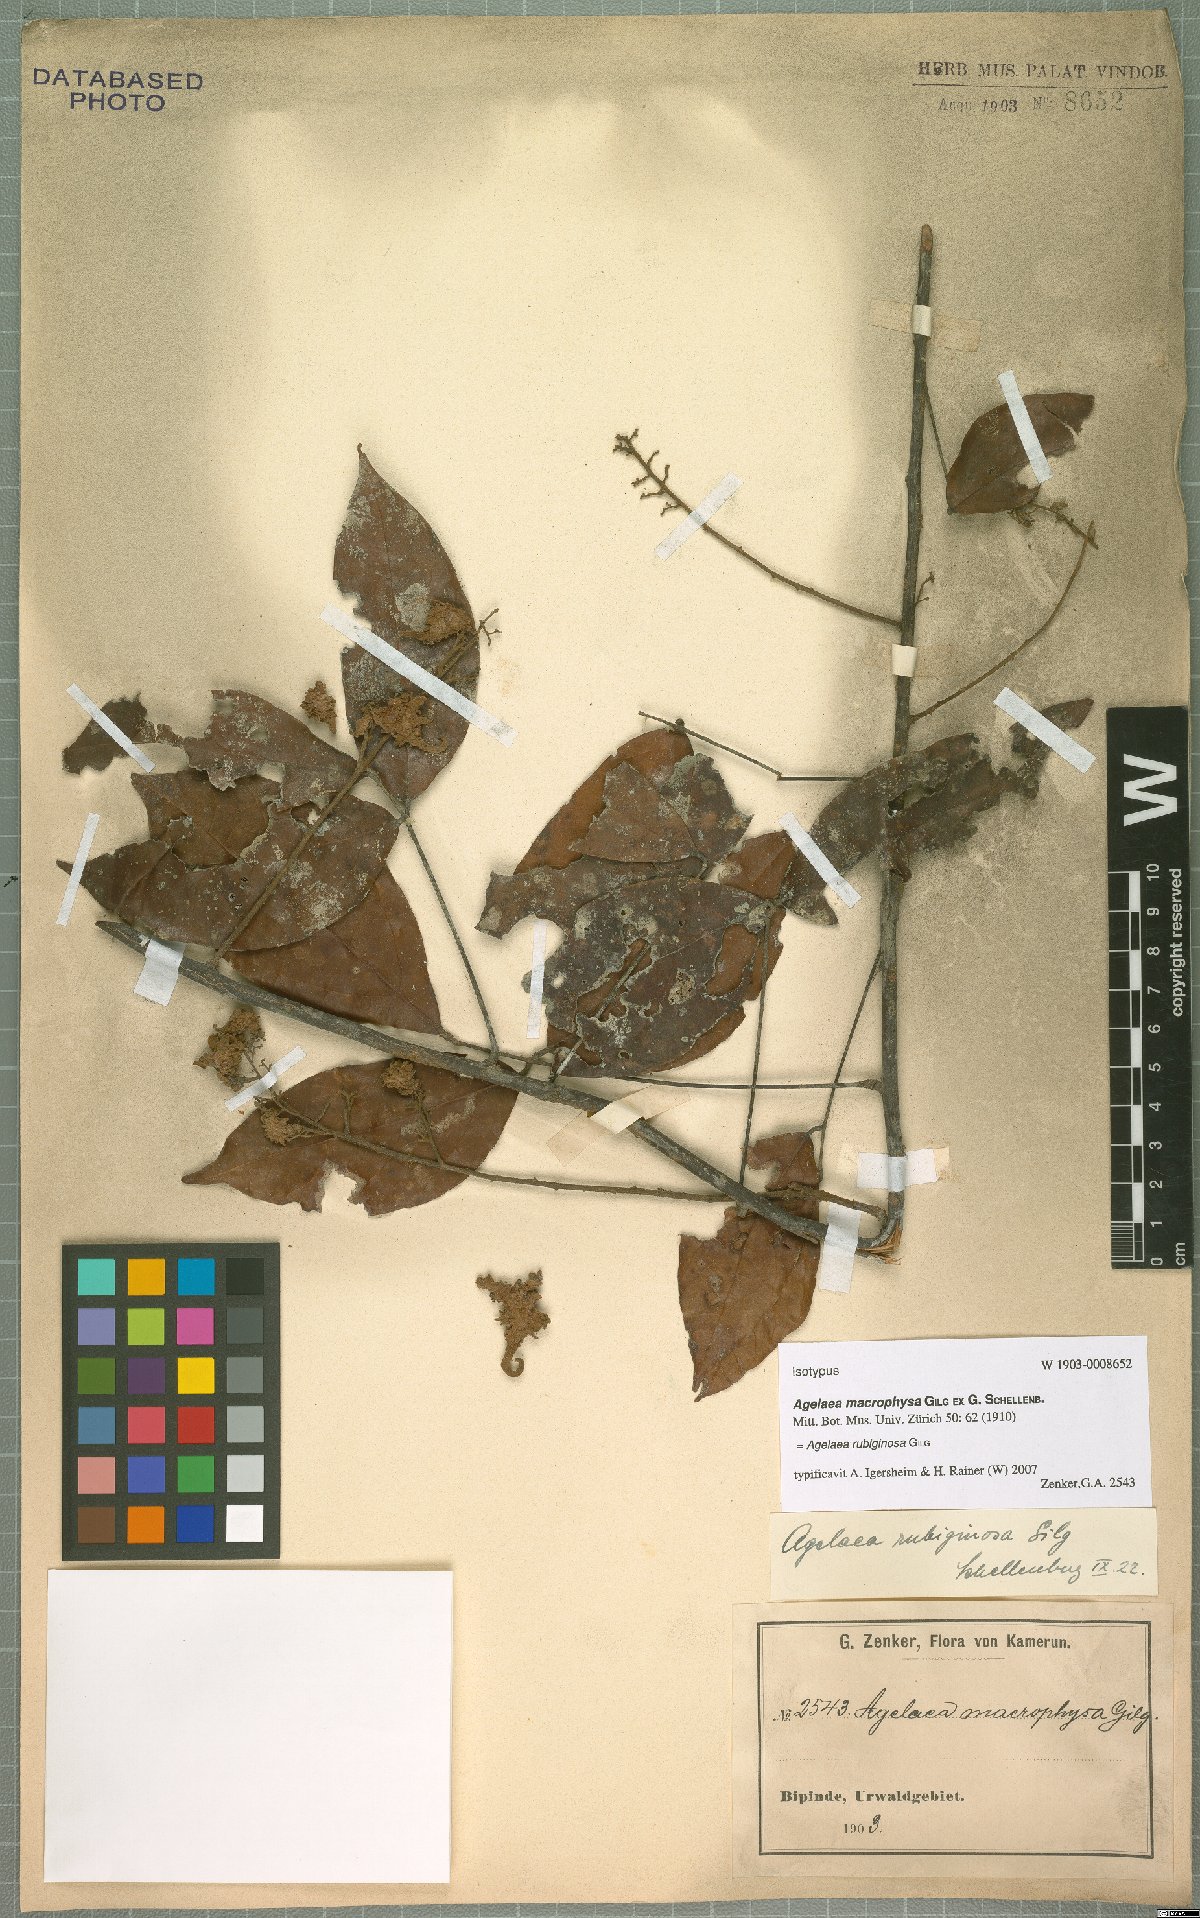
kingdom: Plantae
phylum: Tracheophyta
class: Magnoliopsida
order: Oxalidales
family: Connaraceae
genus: Agelaea
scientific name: Agelaea rubiginosa
